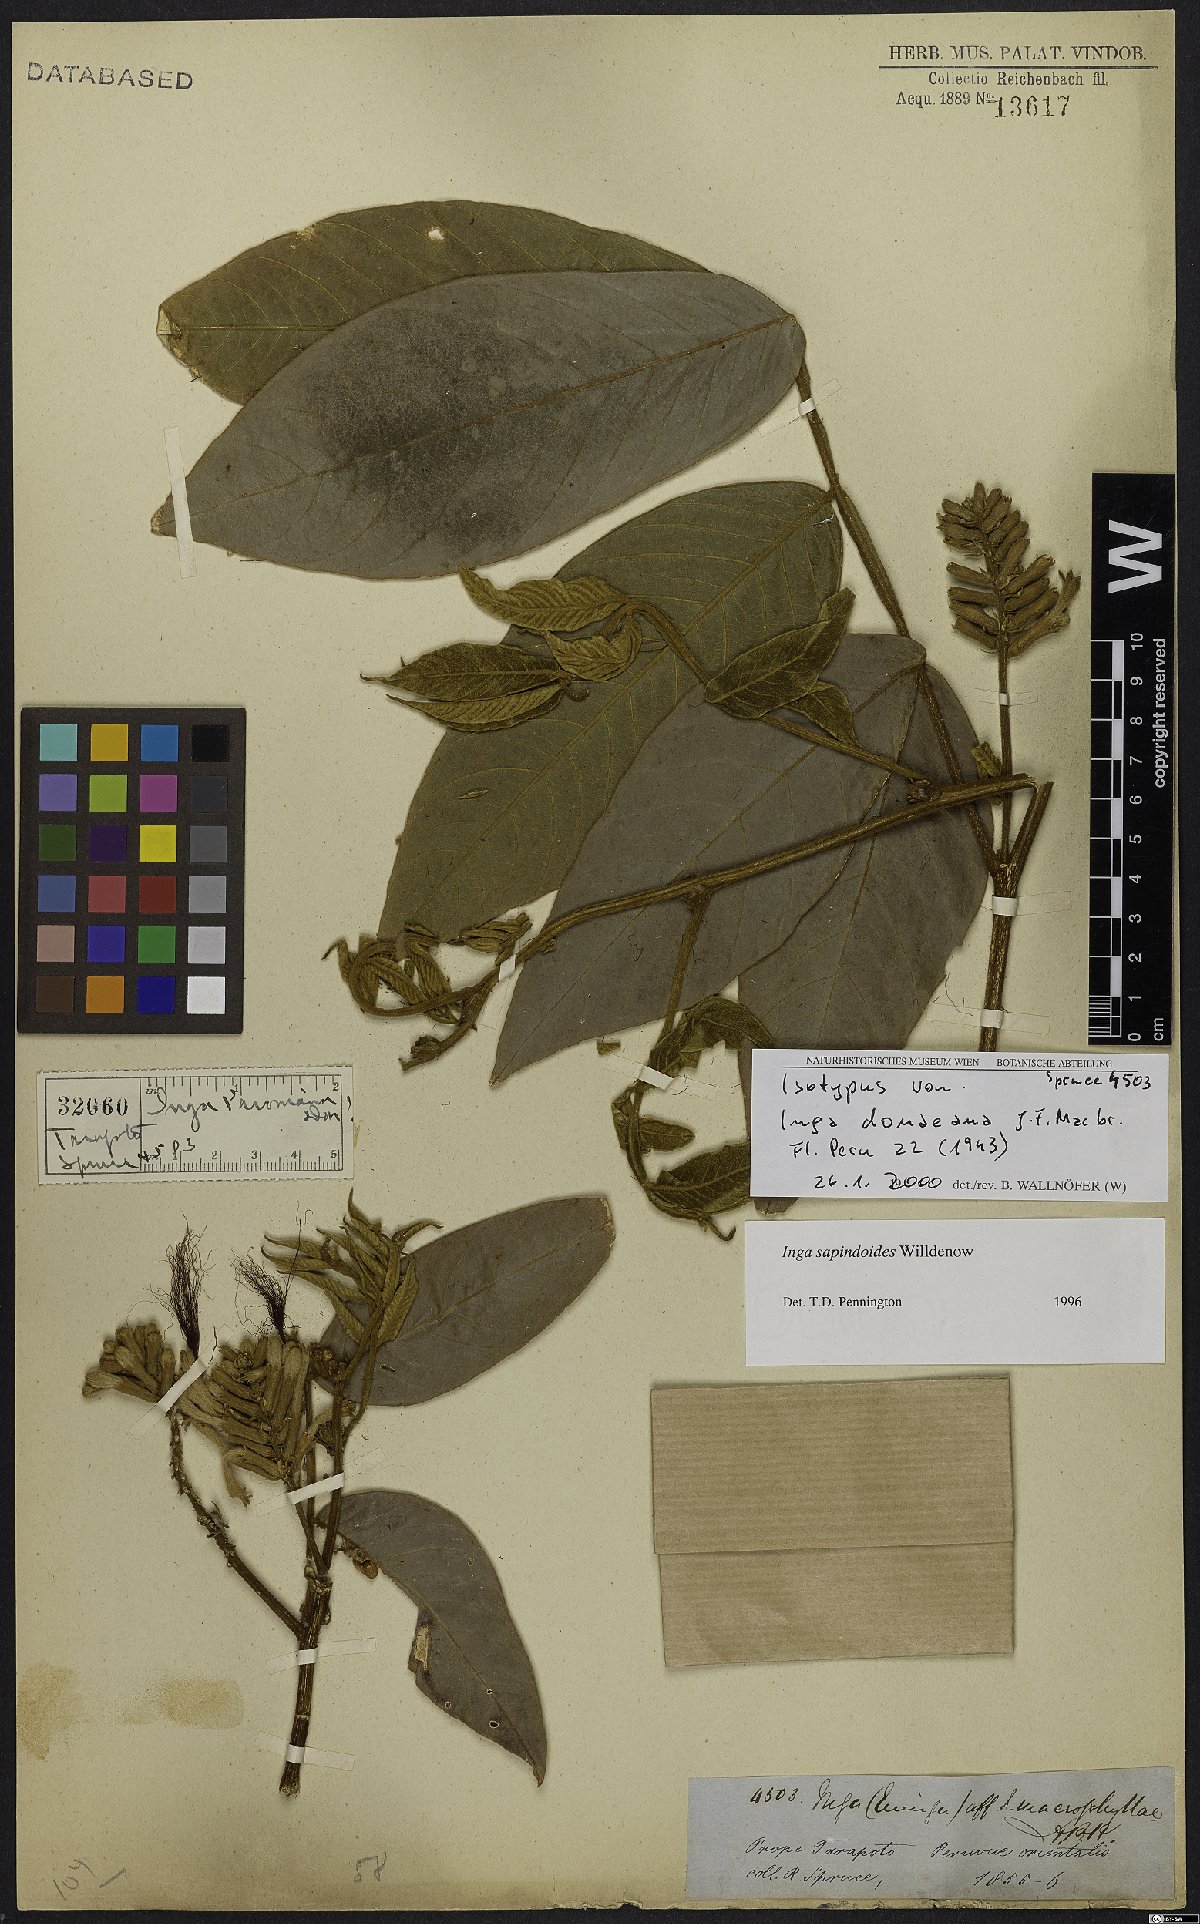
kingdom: Plantae
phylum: Tracheophyta
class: Magnoliopsida
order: Fabales
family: Fabaceae
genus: Inga
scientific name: Inga sapindoides
